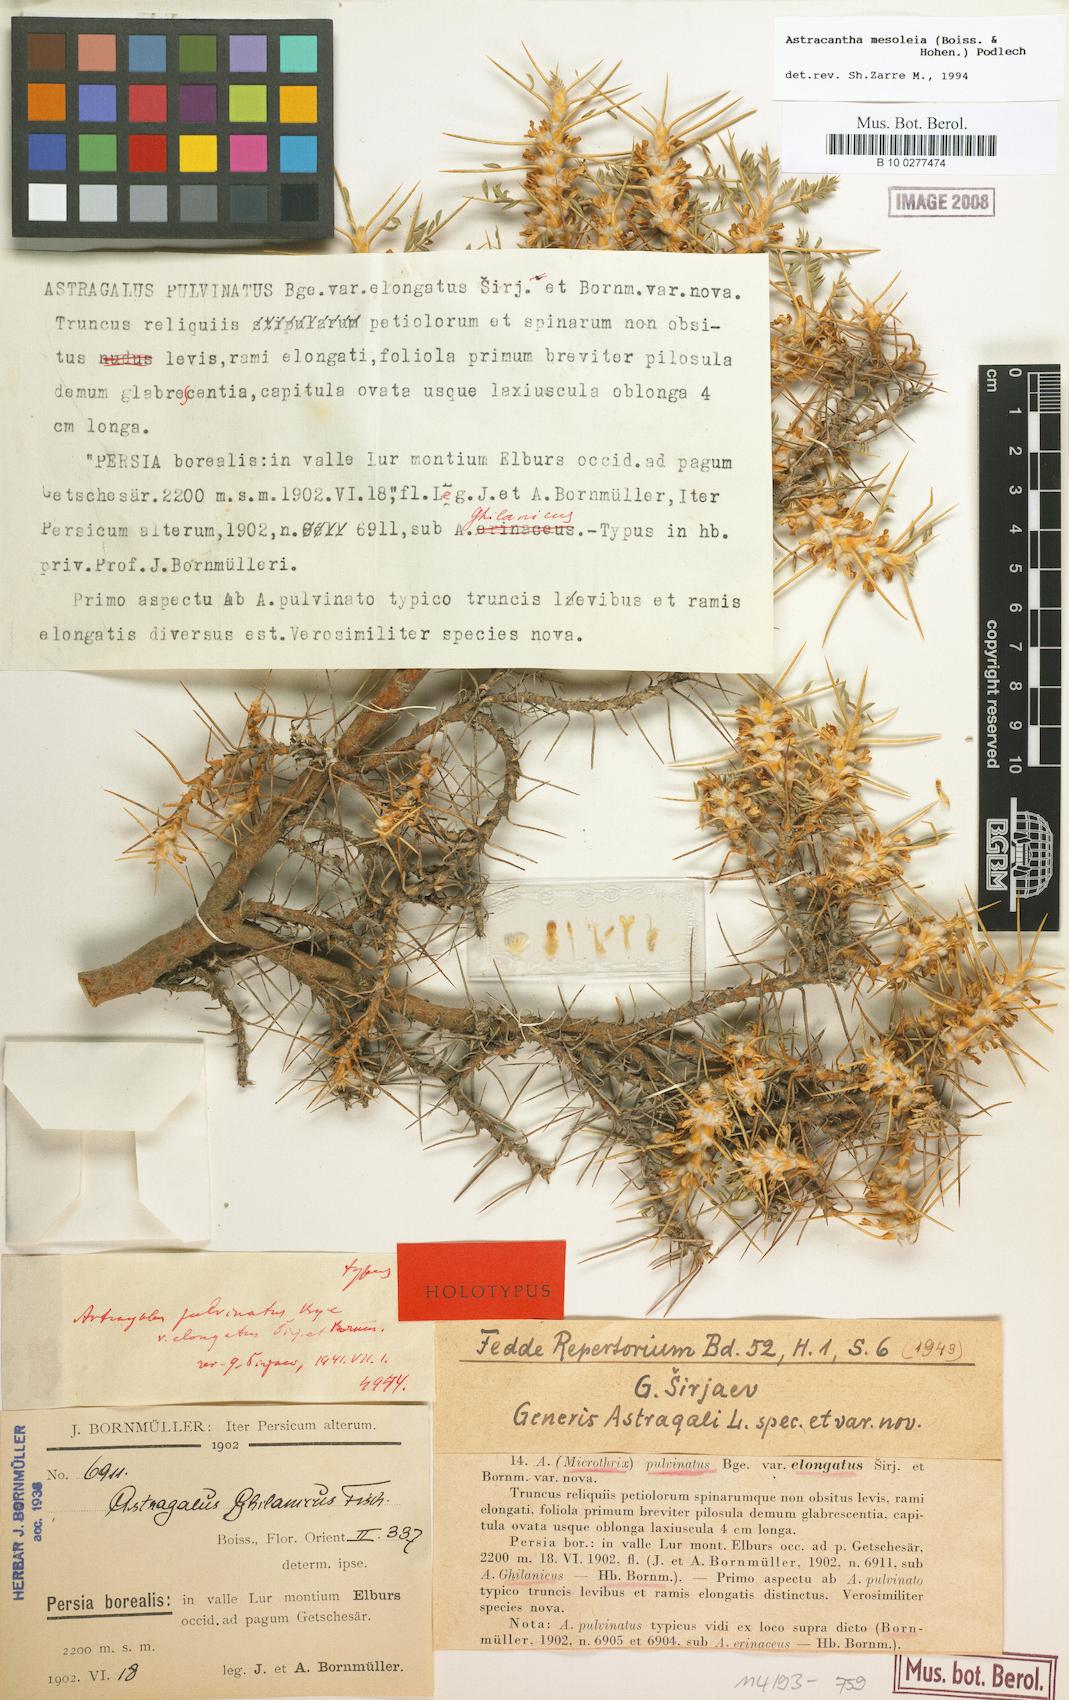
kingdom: Plantae
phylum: Tracheophyta
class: Magnoliopsida
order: Fabales
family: Fabaceae
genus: Astragalus
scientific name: Astragalus mesoleios
